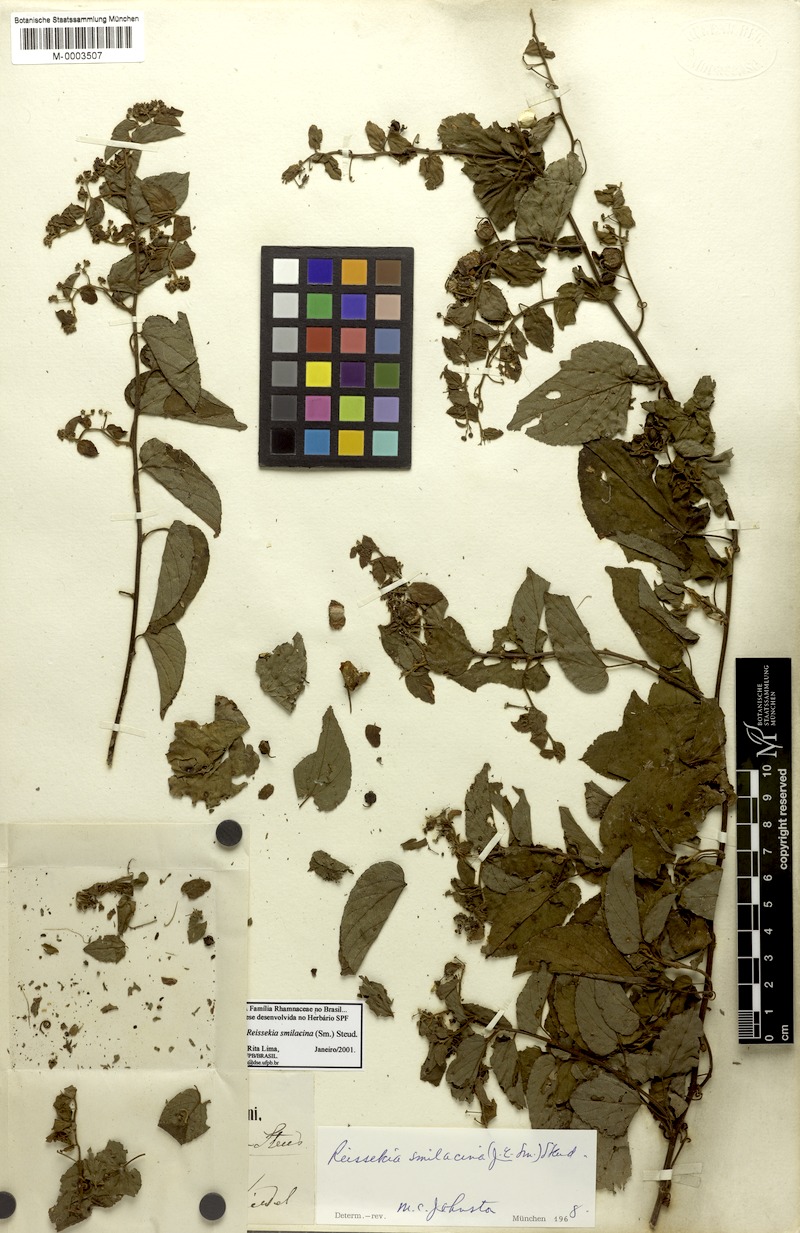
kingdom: Plantae
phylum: Tracheophyta
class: Magnoliopsida
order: Rosales
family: Rhamnaceae
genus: Reissekia
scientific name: Reissekia smilacina
